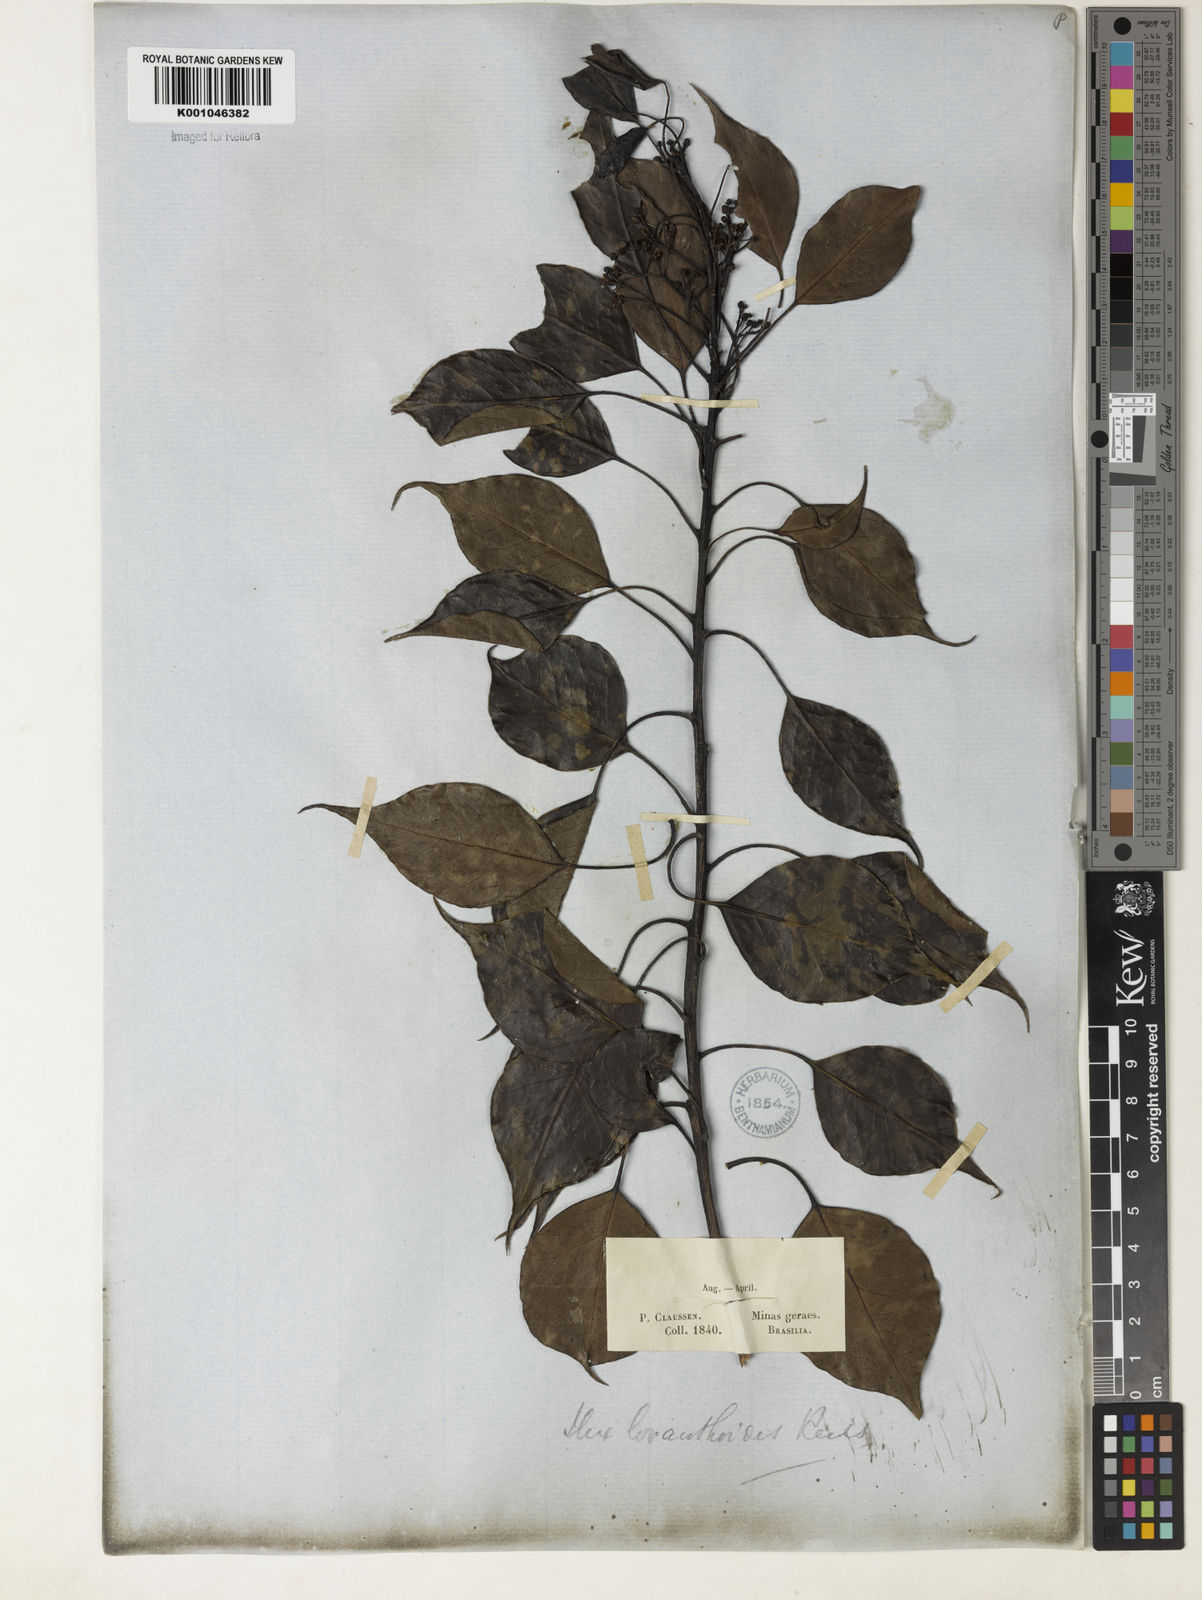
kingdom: Plantae
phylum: Tracheophyta
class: Magnoliopsida
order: Aquifoliales
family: Aquifoliaceae
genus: Ilex
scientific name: Ilex loranthoides
